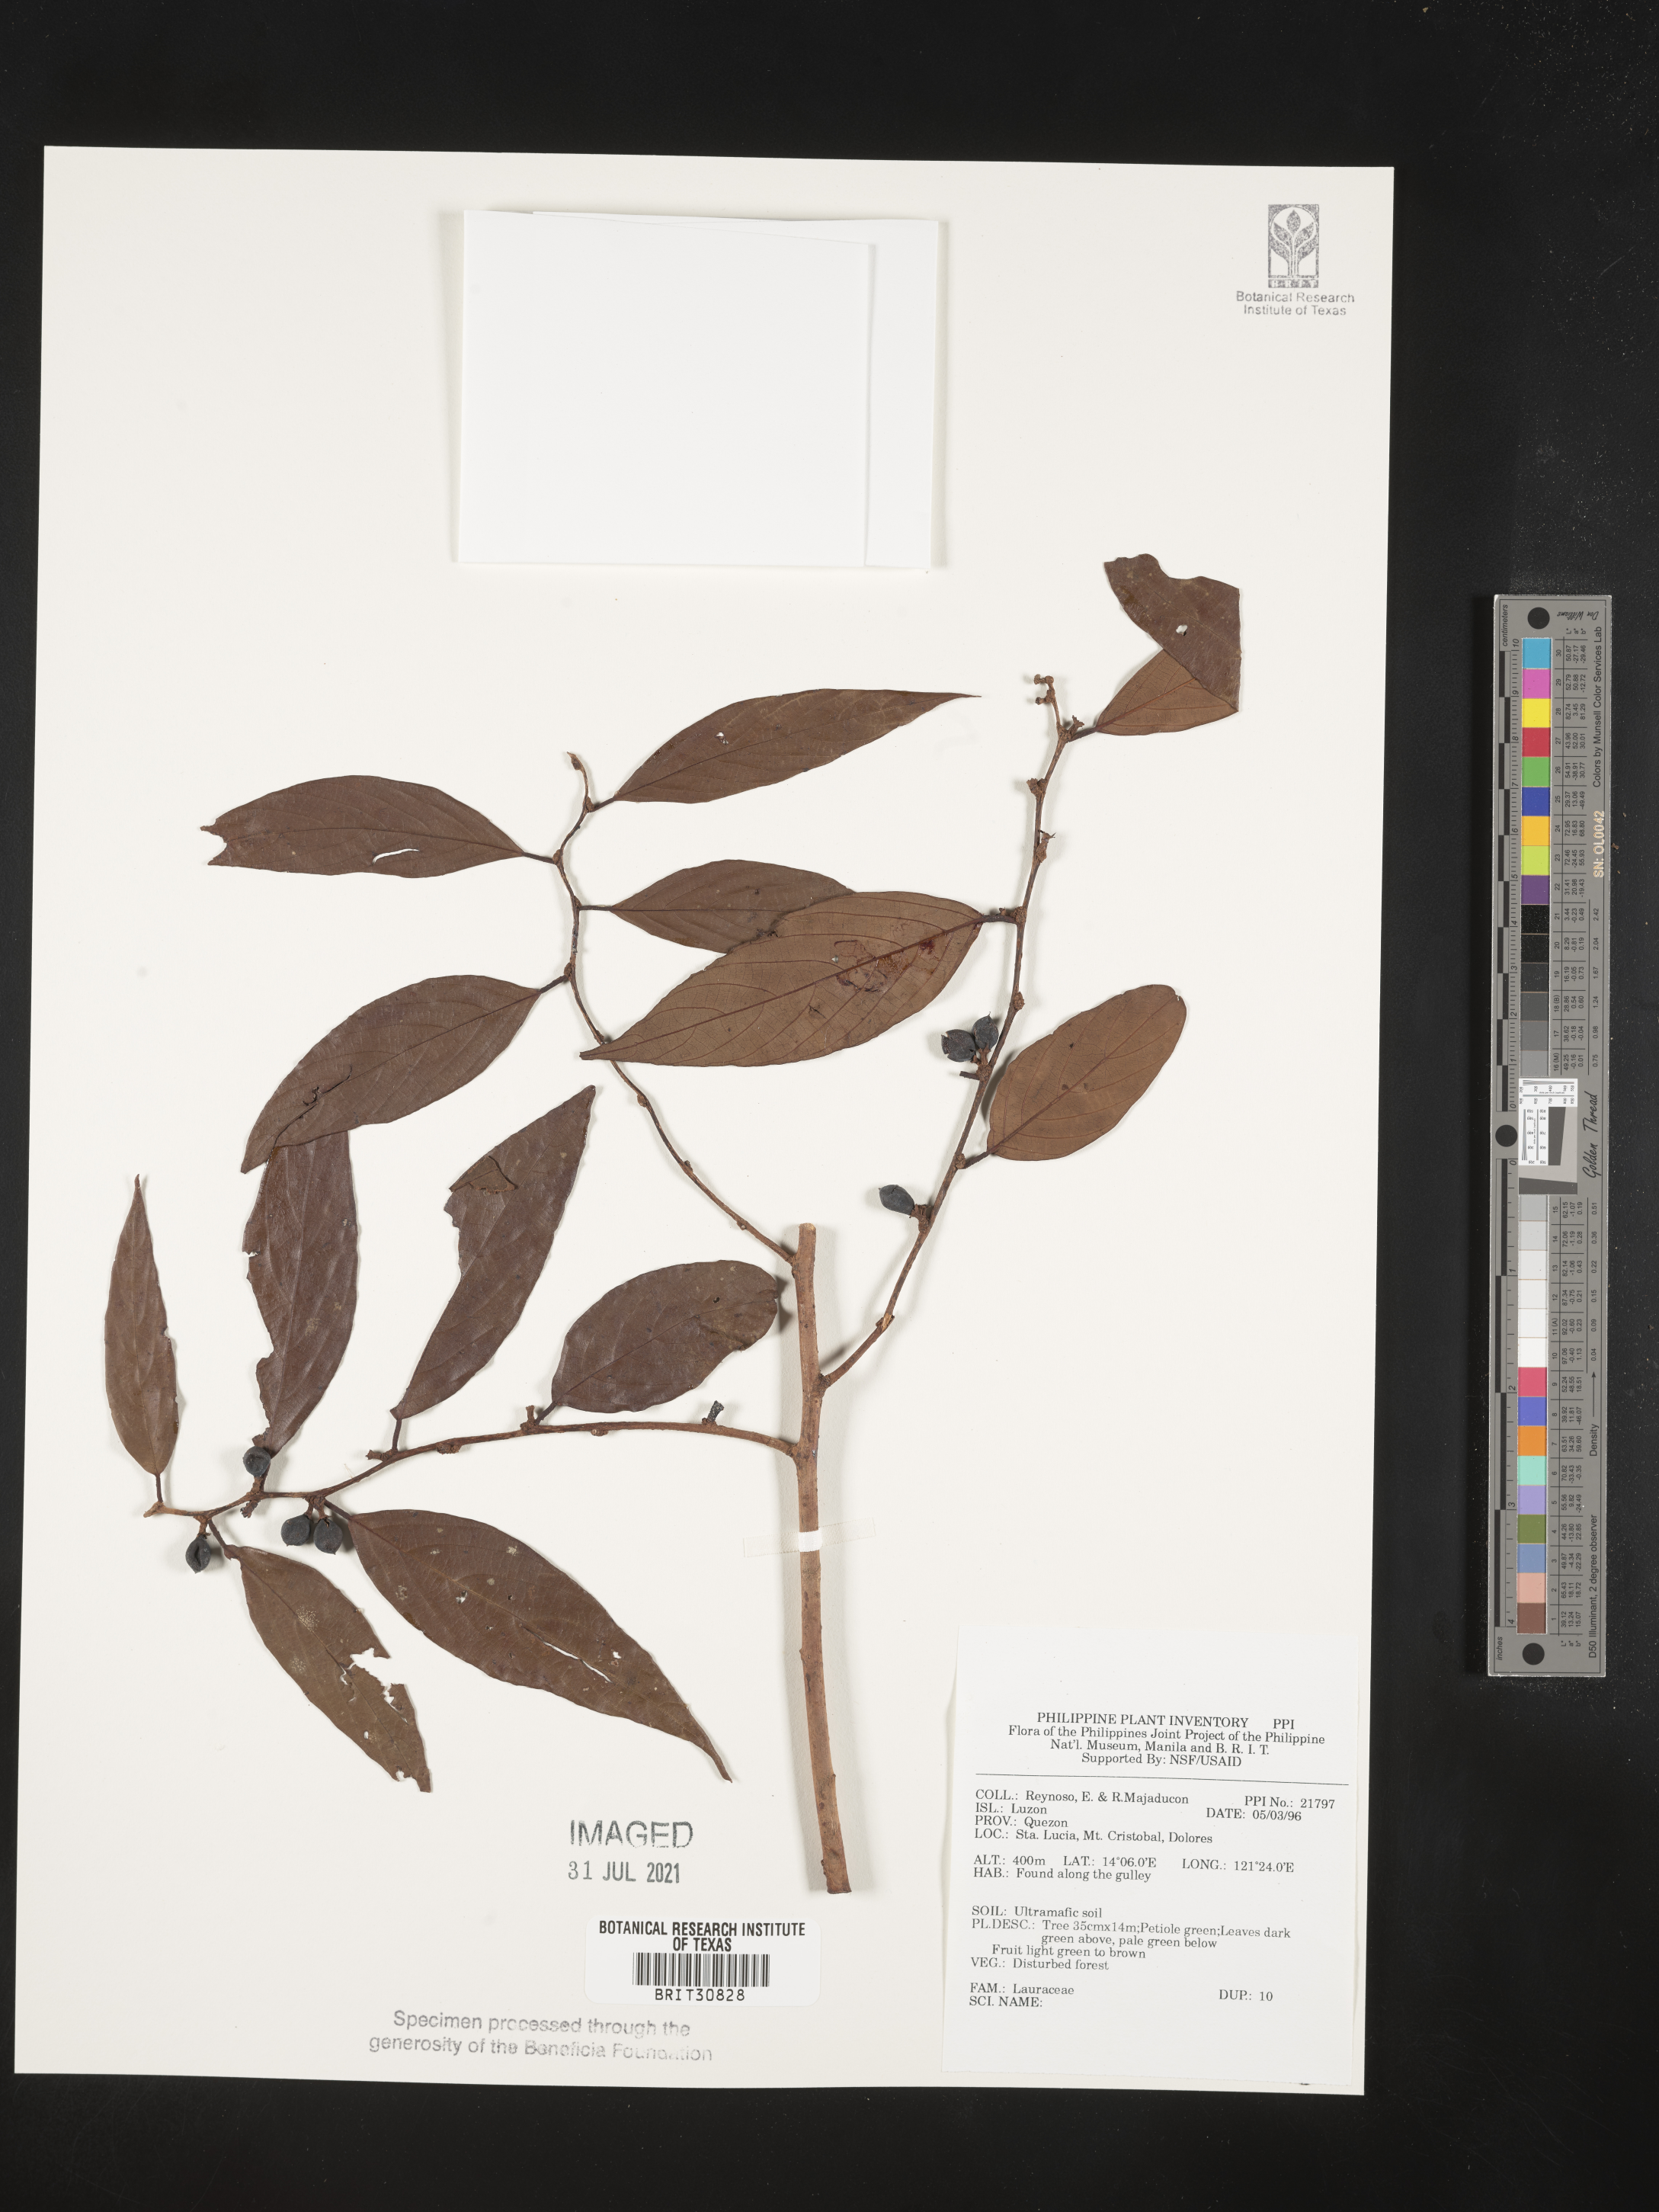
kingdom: Plantae
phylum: Tracheophyta
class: Magnoliopsida
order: Laurales
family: Lauraceae
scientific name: Lauraceae
